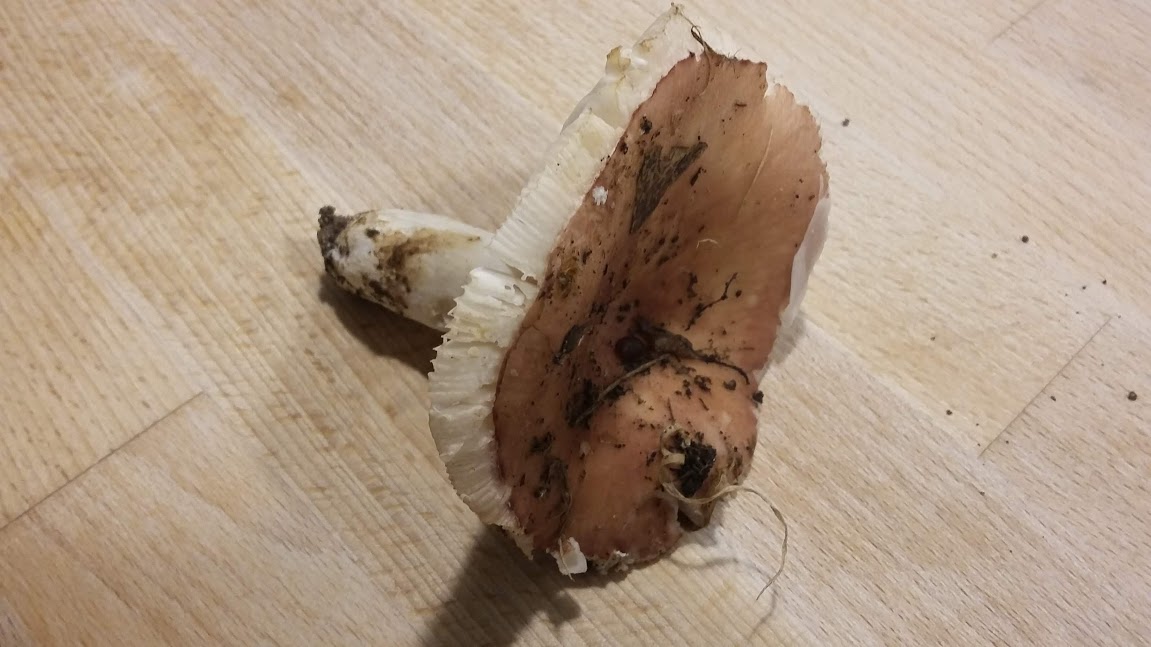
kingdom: Fungi
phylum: Basidiomycota
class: Agaricomycetes
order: Russulales
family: Russulaceae
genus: Russula
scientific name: Russula vesca
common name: spiselig skørhat
